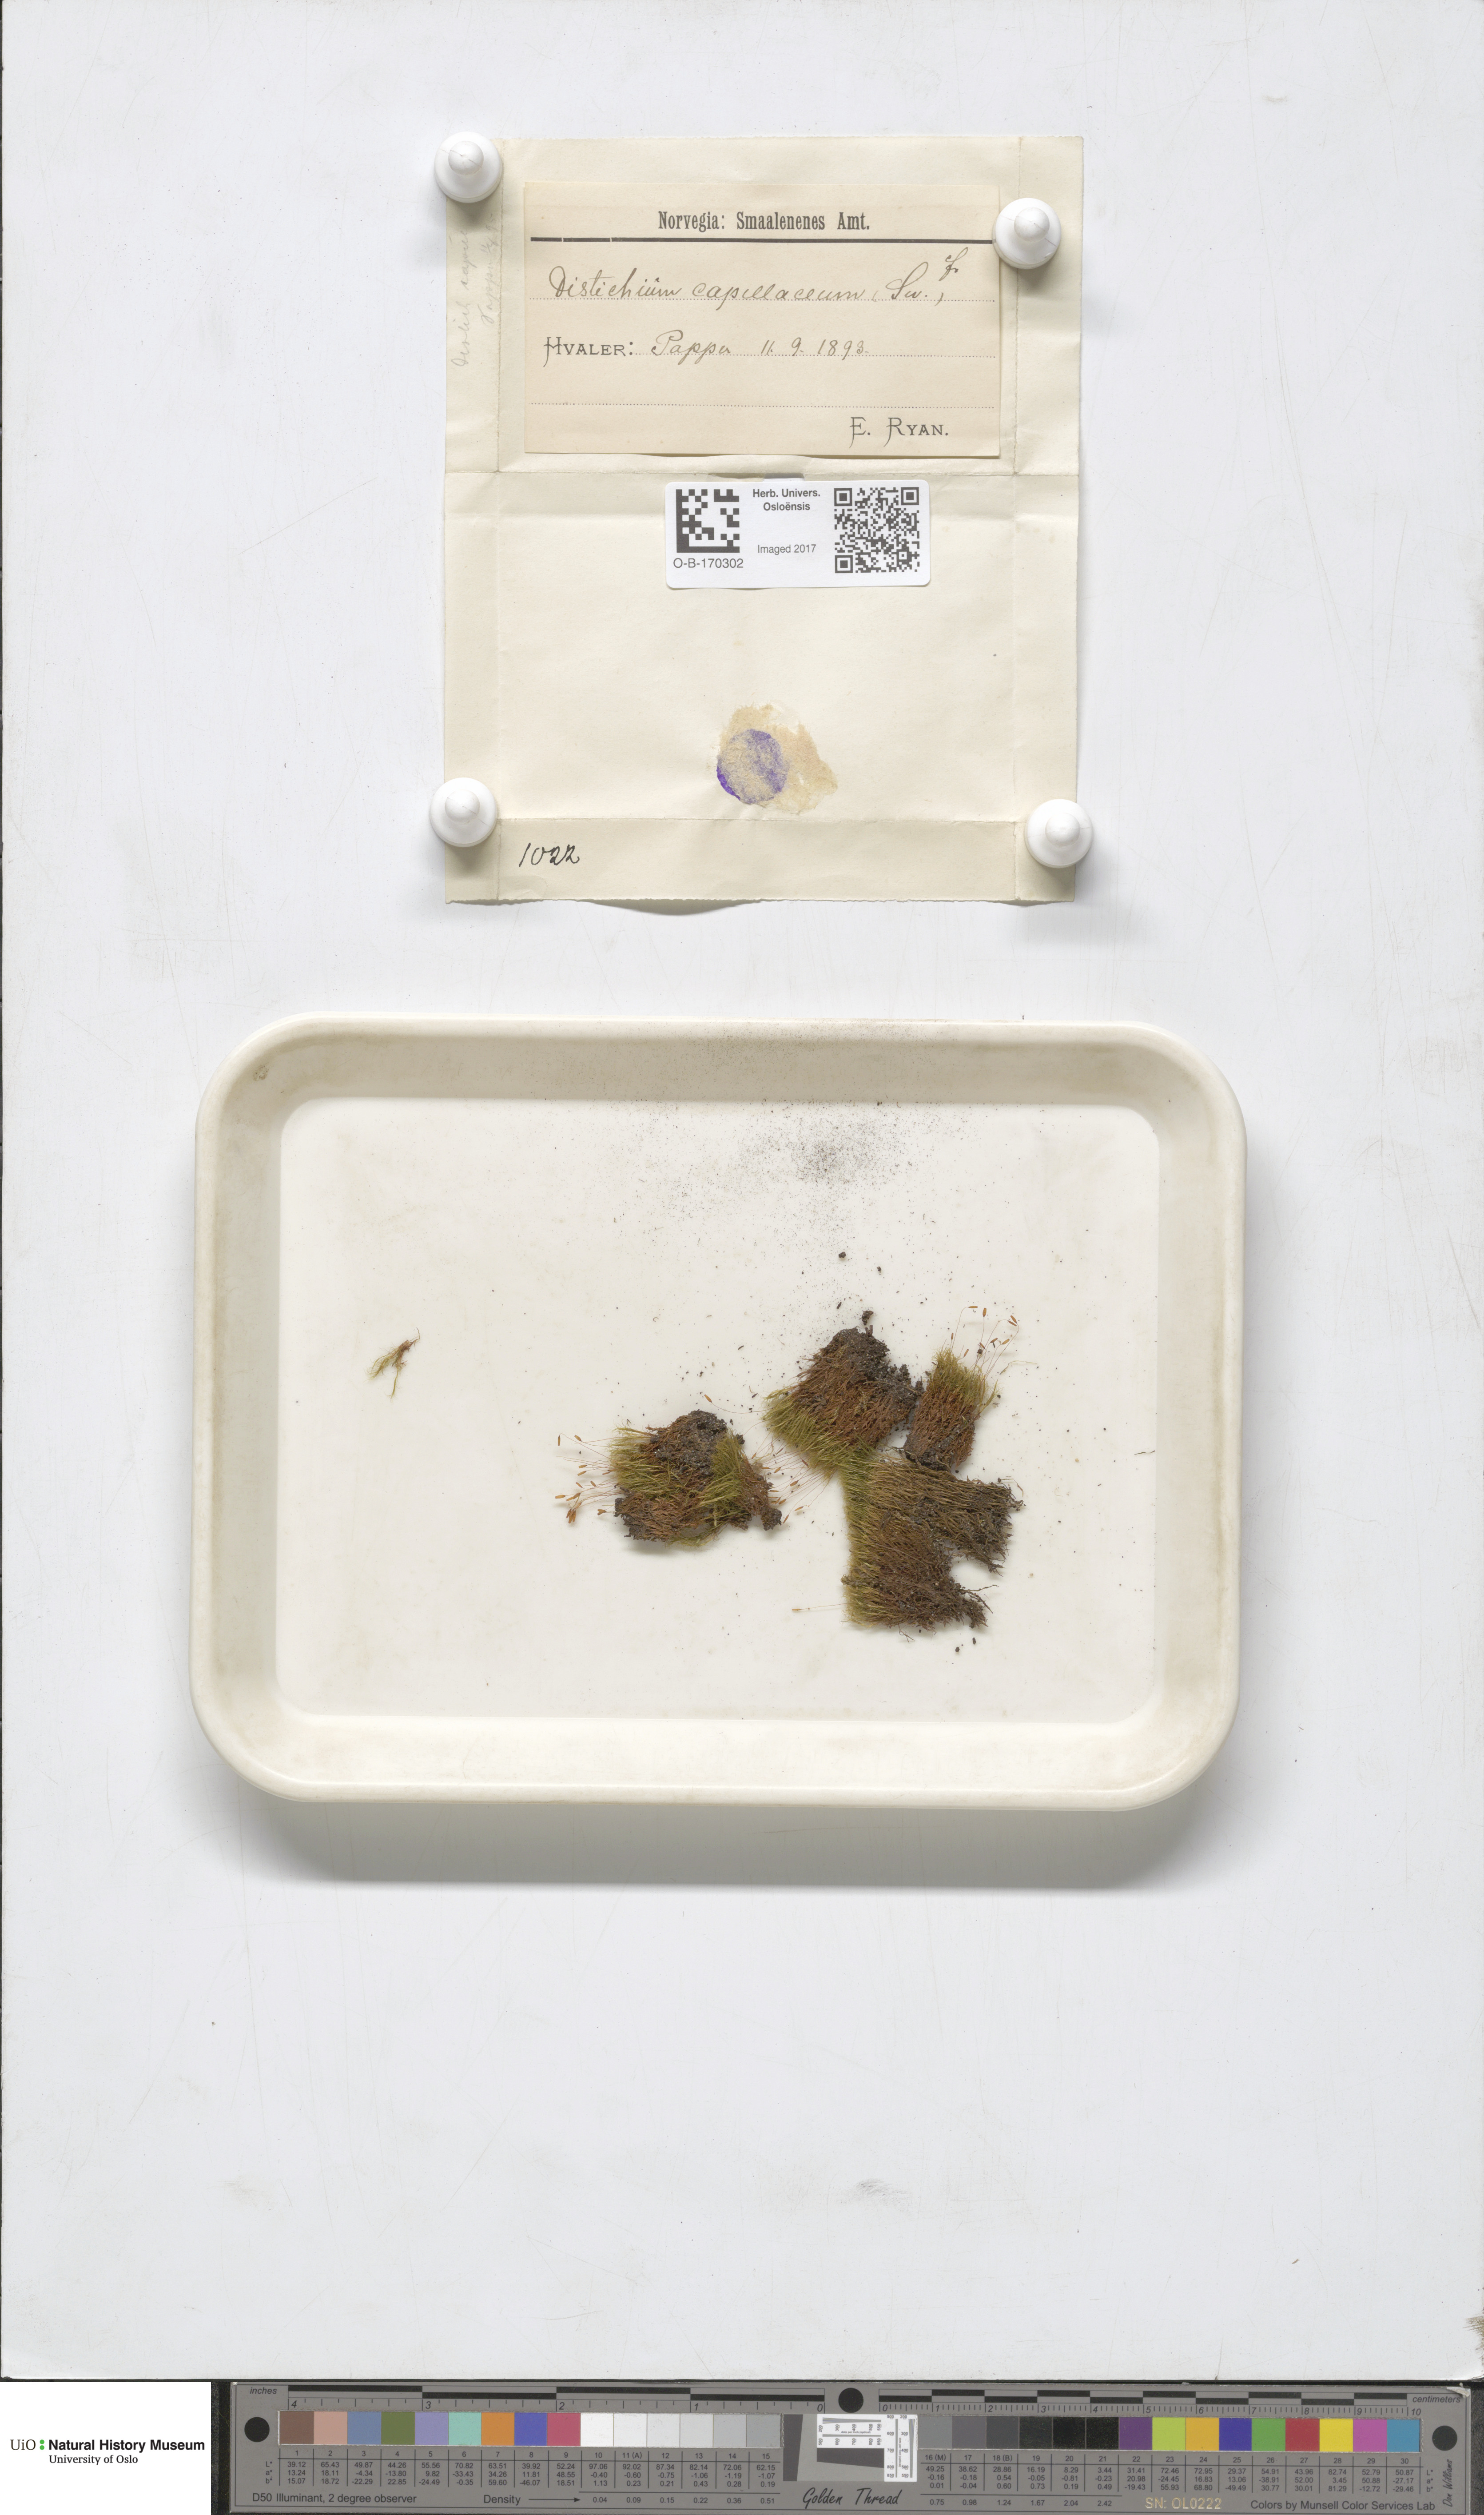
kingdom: Plantae
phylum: Bryophyta
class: Bryopsida
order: Scouleriales
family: Distichiaceae
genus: Distichium
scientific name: Distichium capillaceum
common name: Erect-fruited iris moss
